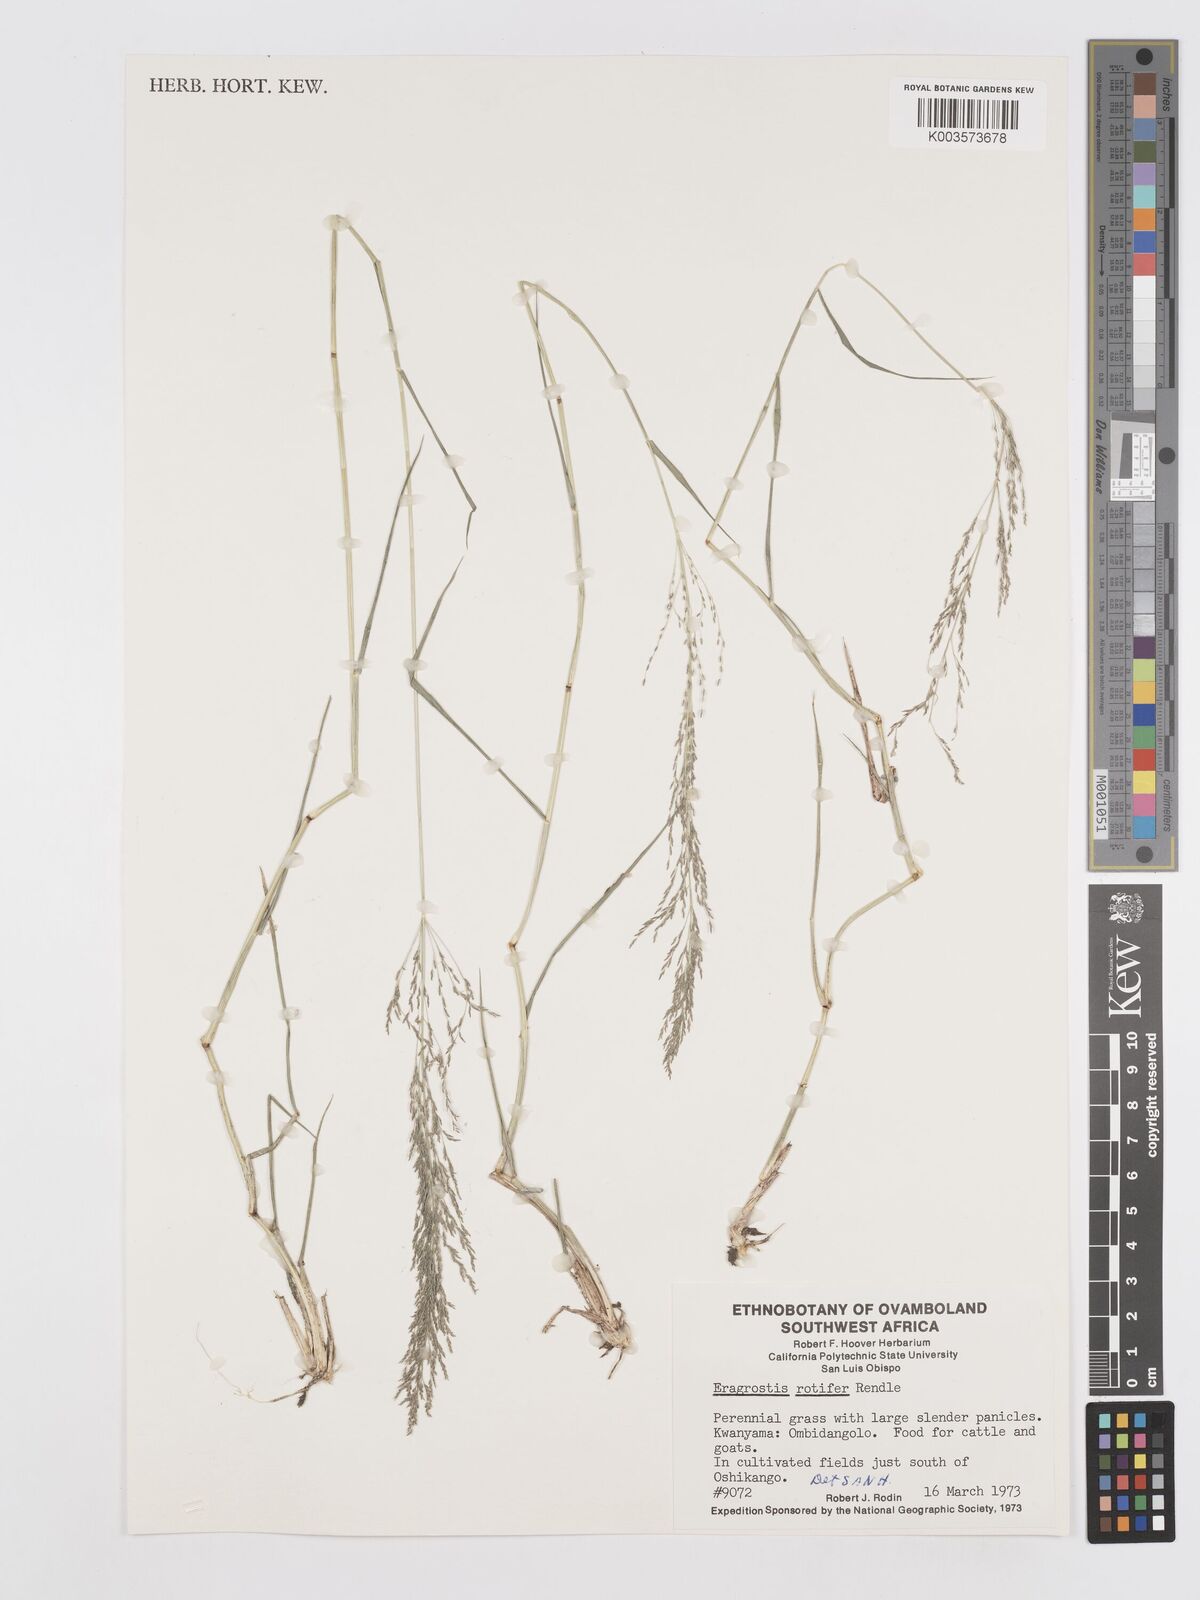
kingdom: Plantae
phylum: Tracheophyta
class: Liliopsida
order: Poales
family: Poaceae
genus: Eragrostis
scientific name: Eragrostis rotifer
